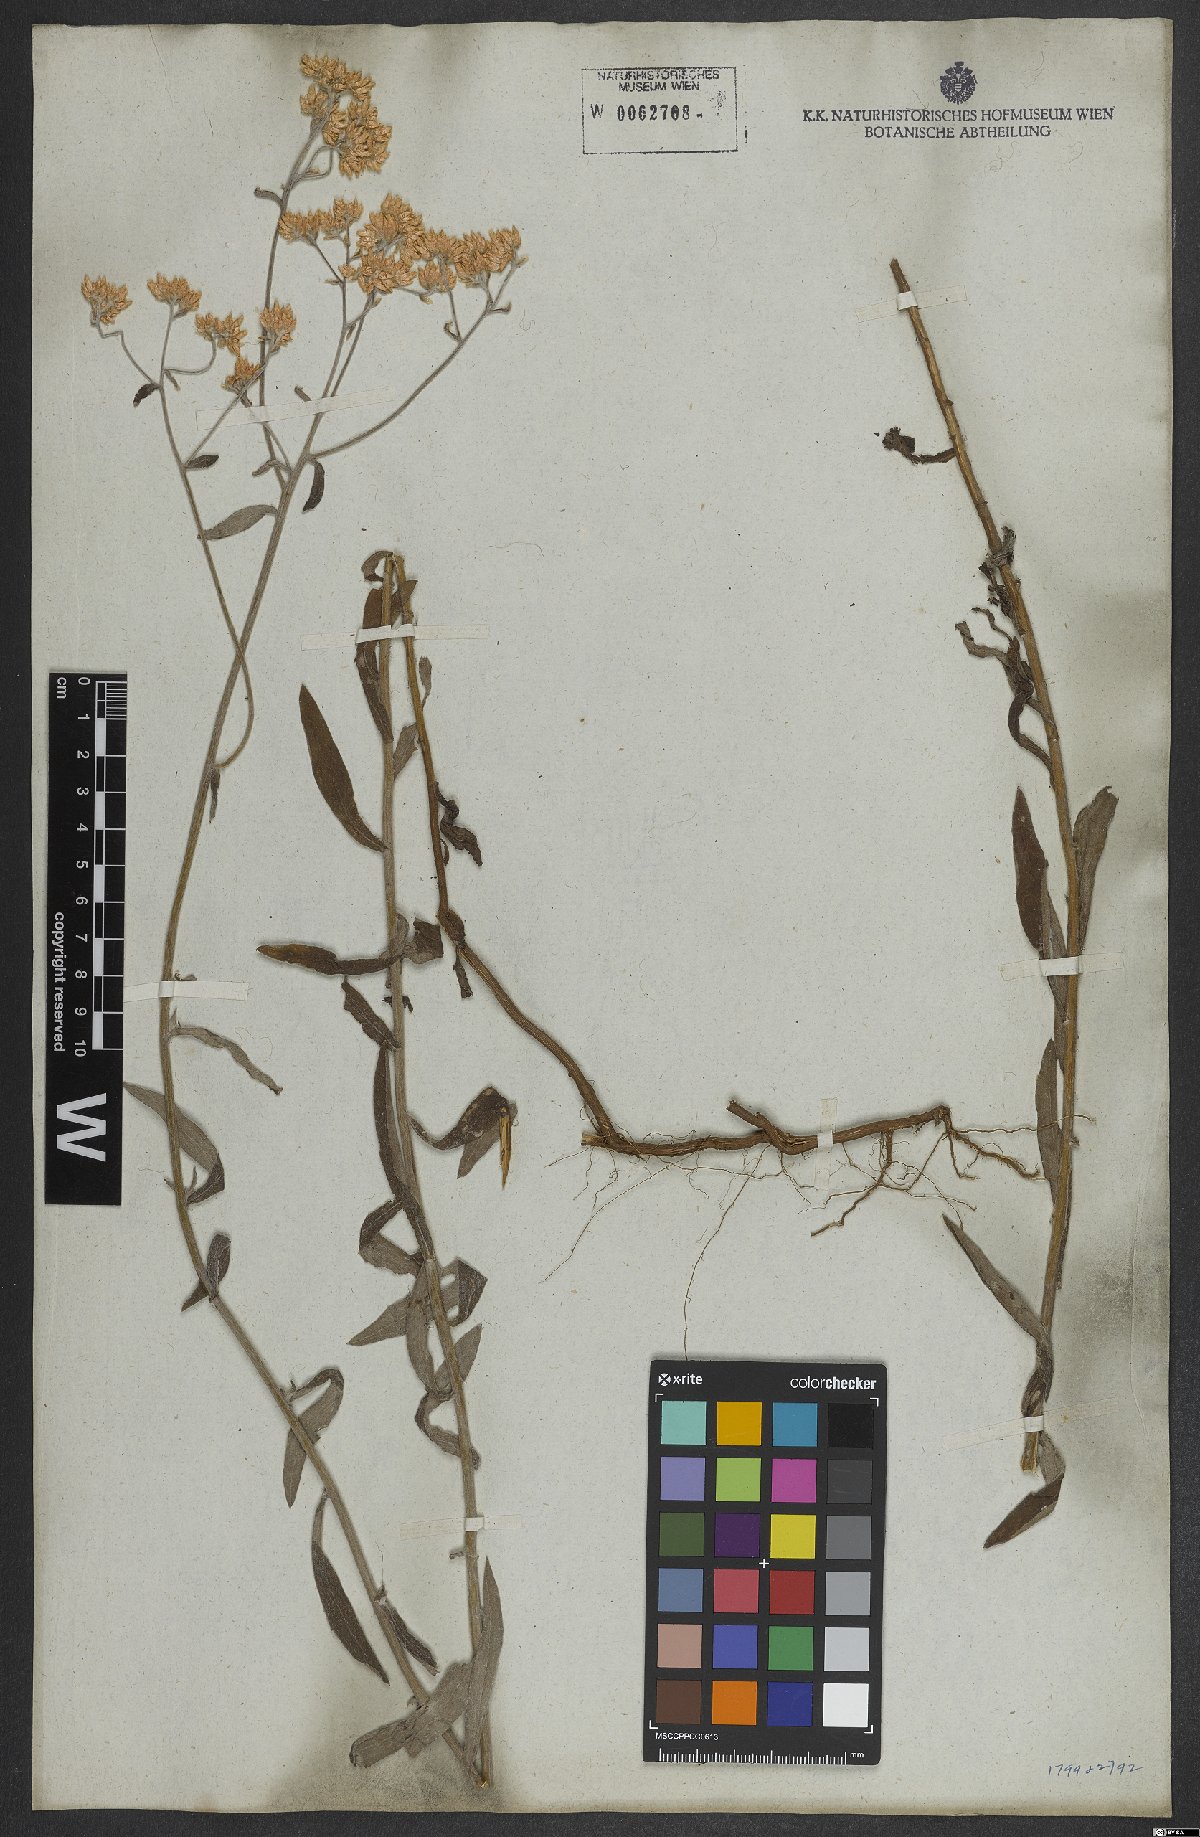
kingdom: Plantae
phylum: Tracheophyta
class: Magnoliopsida
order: Asterales
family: Asteraceae
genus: Achyrocline
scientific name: Achyrocline flaccida
